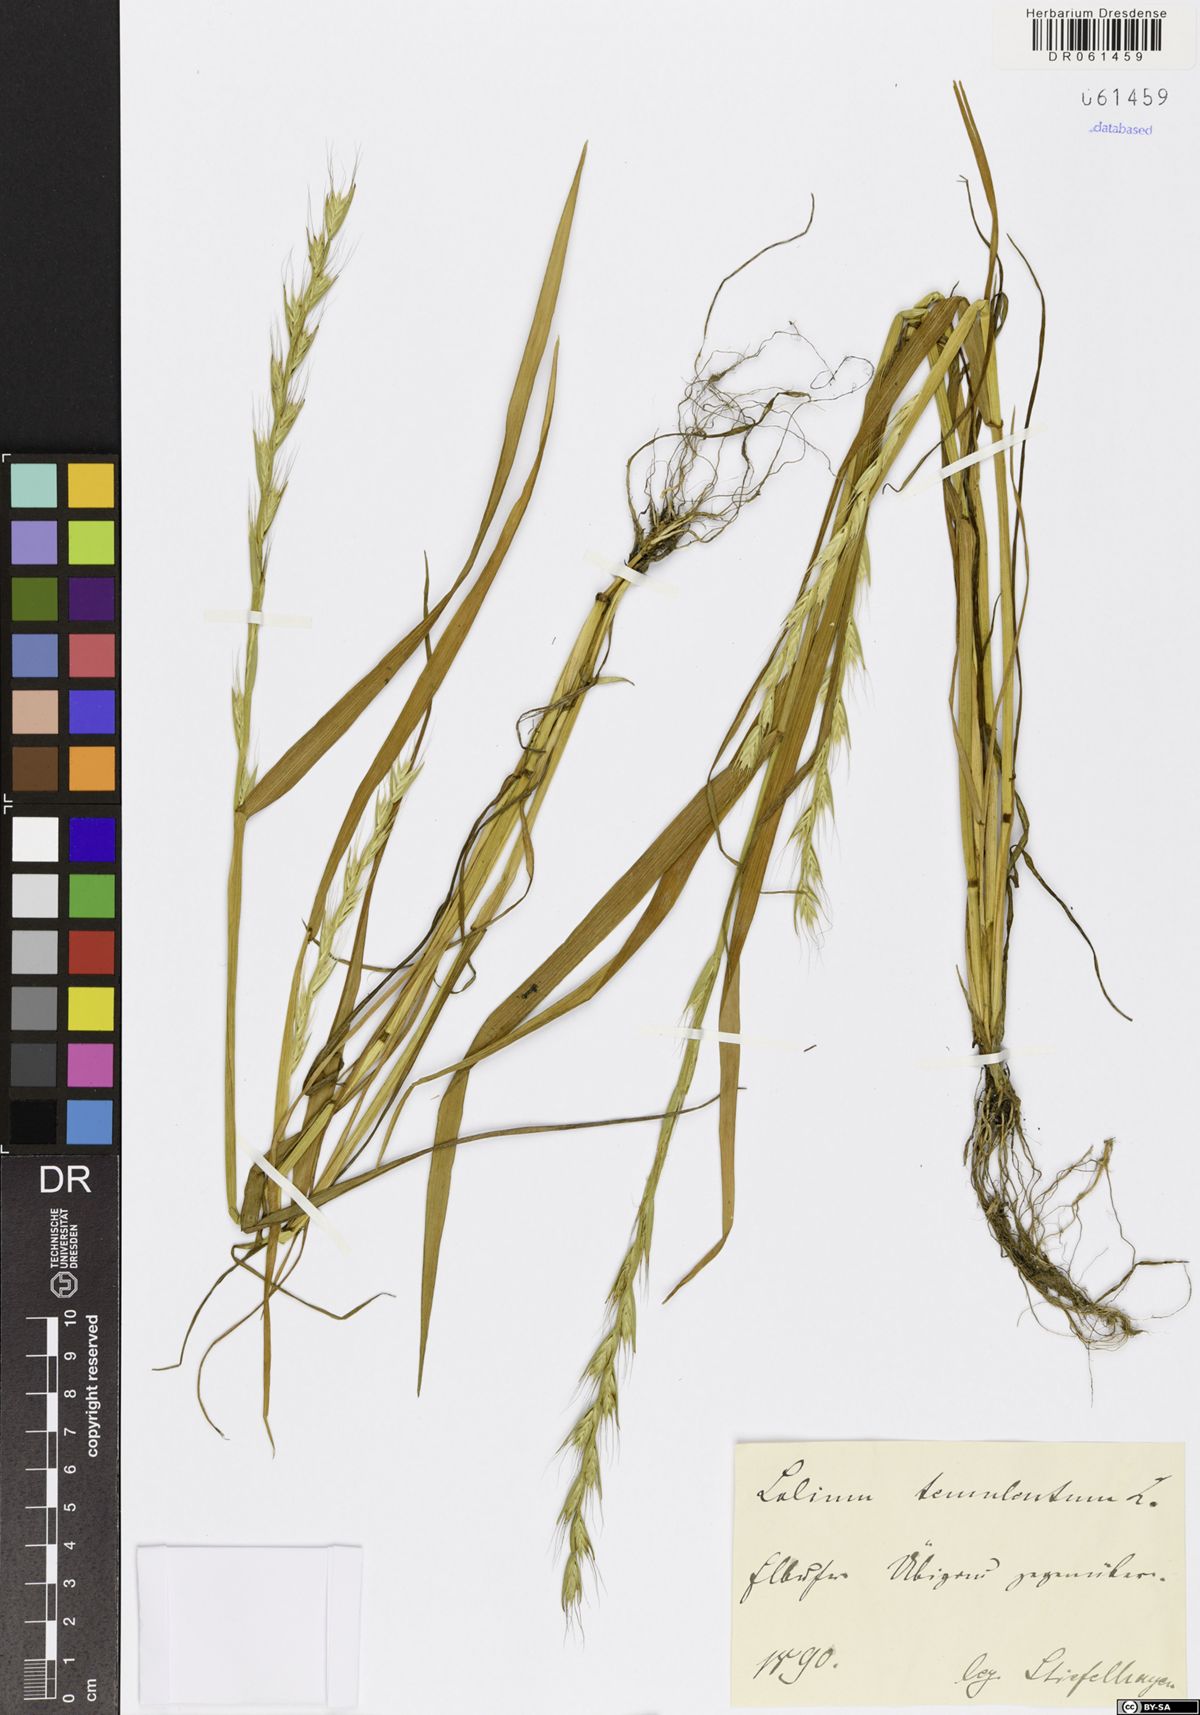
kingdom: Plantae
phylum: Tracheophyta
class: Liliopsida
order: Poales
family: Poaceae
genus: Lolium
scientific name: Lolium temulentum
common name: Darnel
